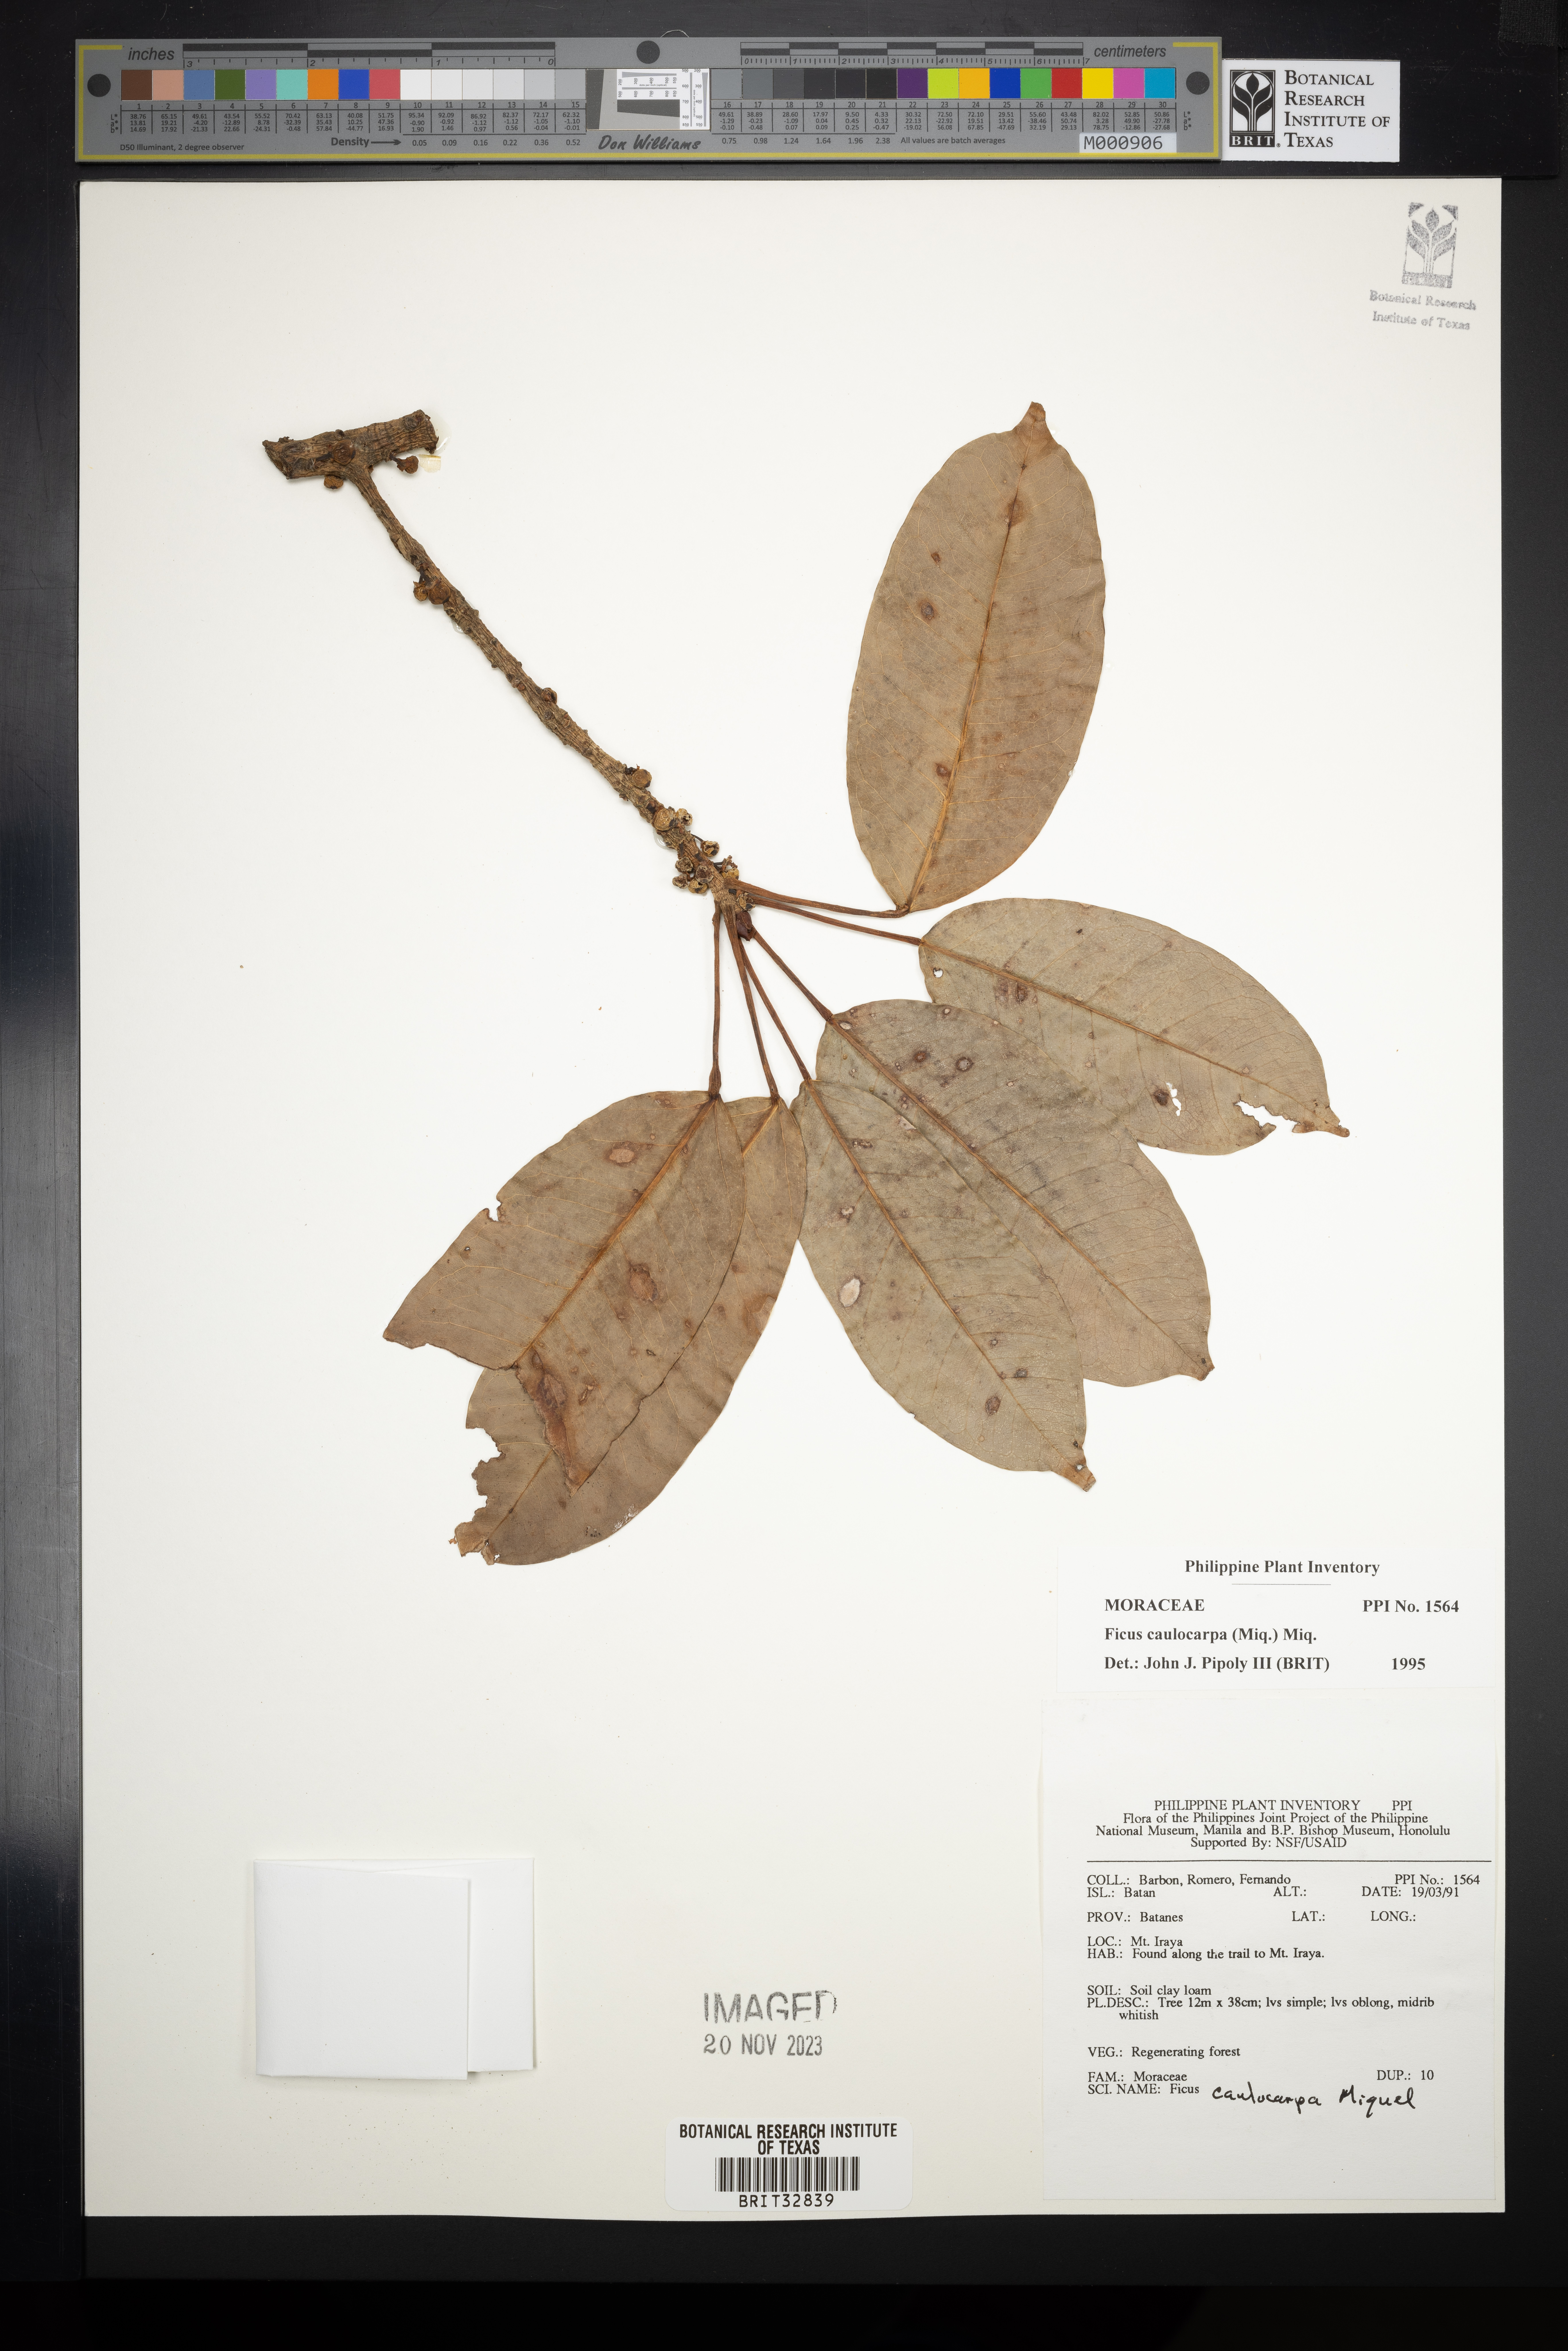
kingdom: Plantae
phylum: Tracheophyta
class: Magnoliopsida
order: Rosales
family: Moraceae
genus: Ficus
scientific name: Ficus caulocarpa
